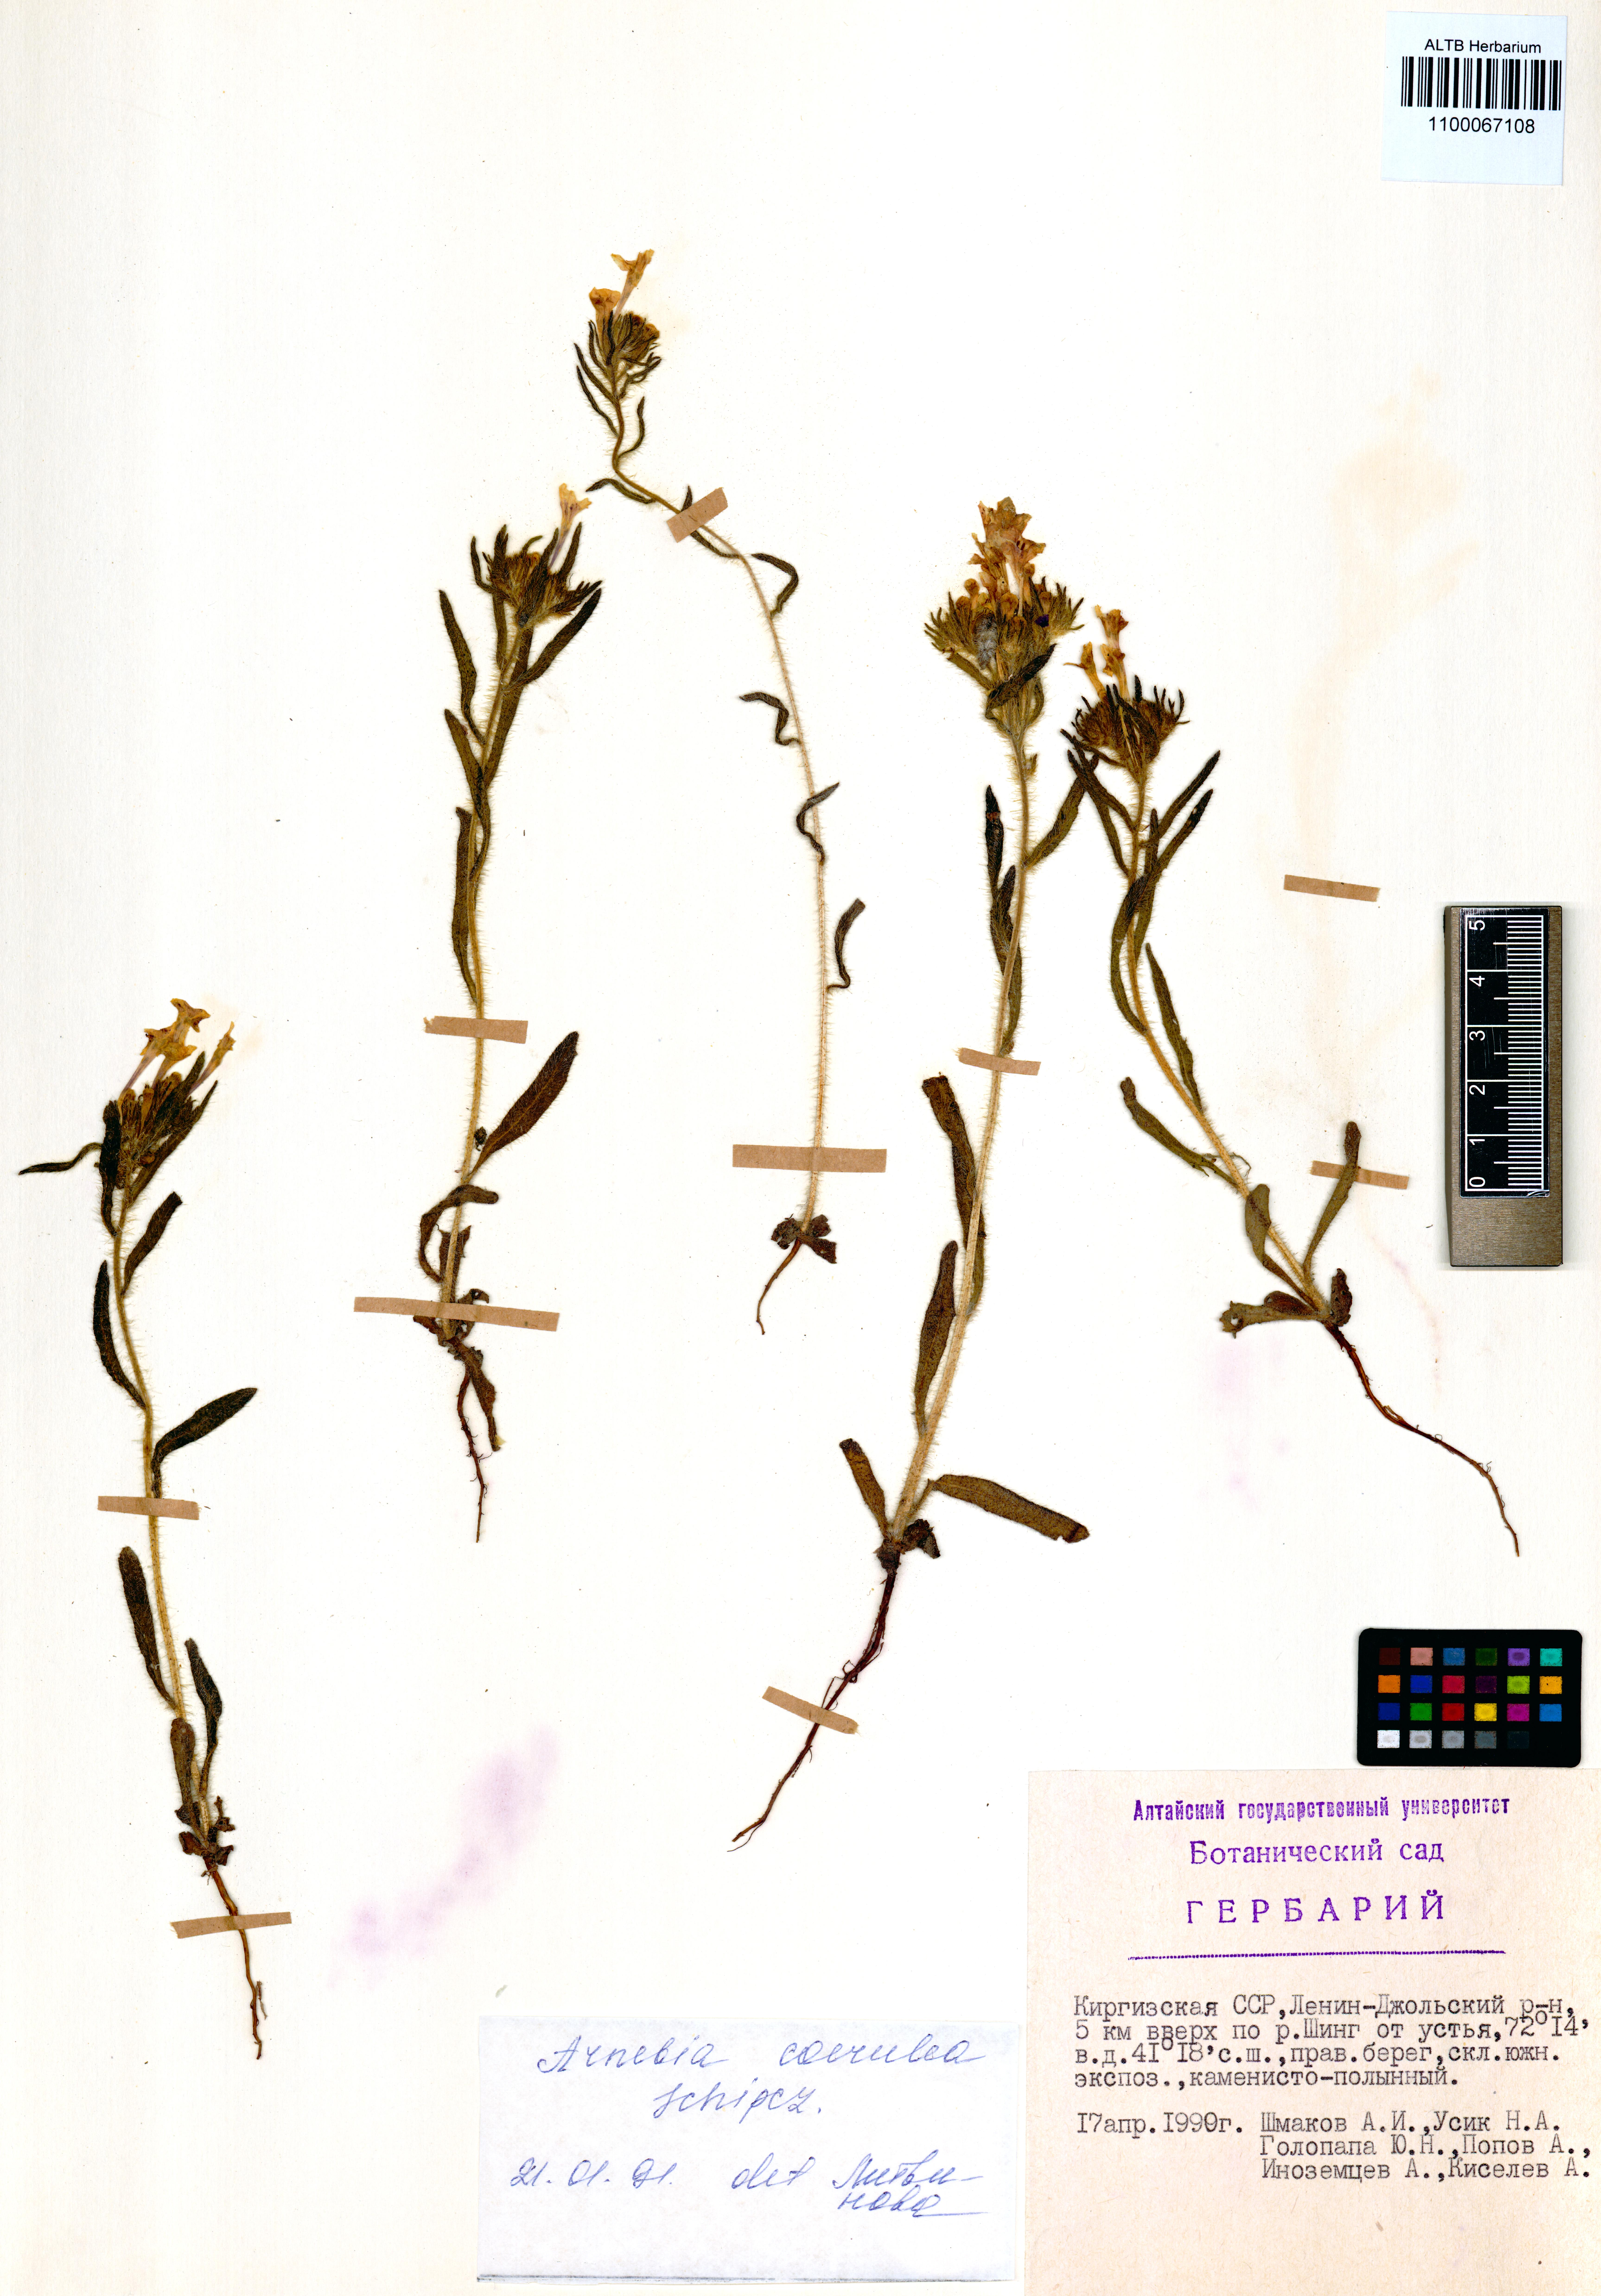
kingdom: Plantae
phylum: Tracheophyta
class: Magnoliopsida
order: Boraginales
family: Boraginaceae
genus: Arnebia
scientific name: Arnebia coerulea
